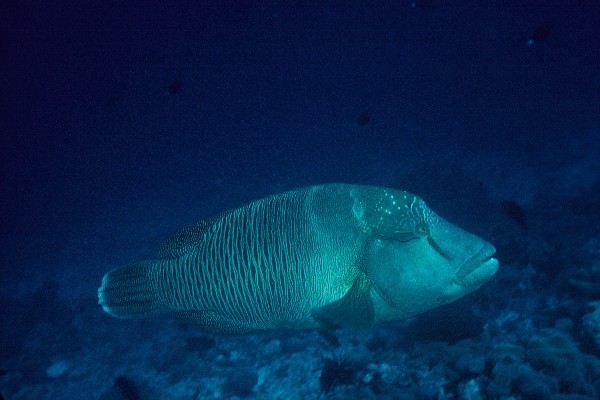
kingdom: Animalia
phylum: Chordata
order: Perciformes
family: Labridae
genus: Cheilinus
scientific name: Cheilinus undulatus
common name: Humphead wrasse
